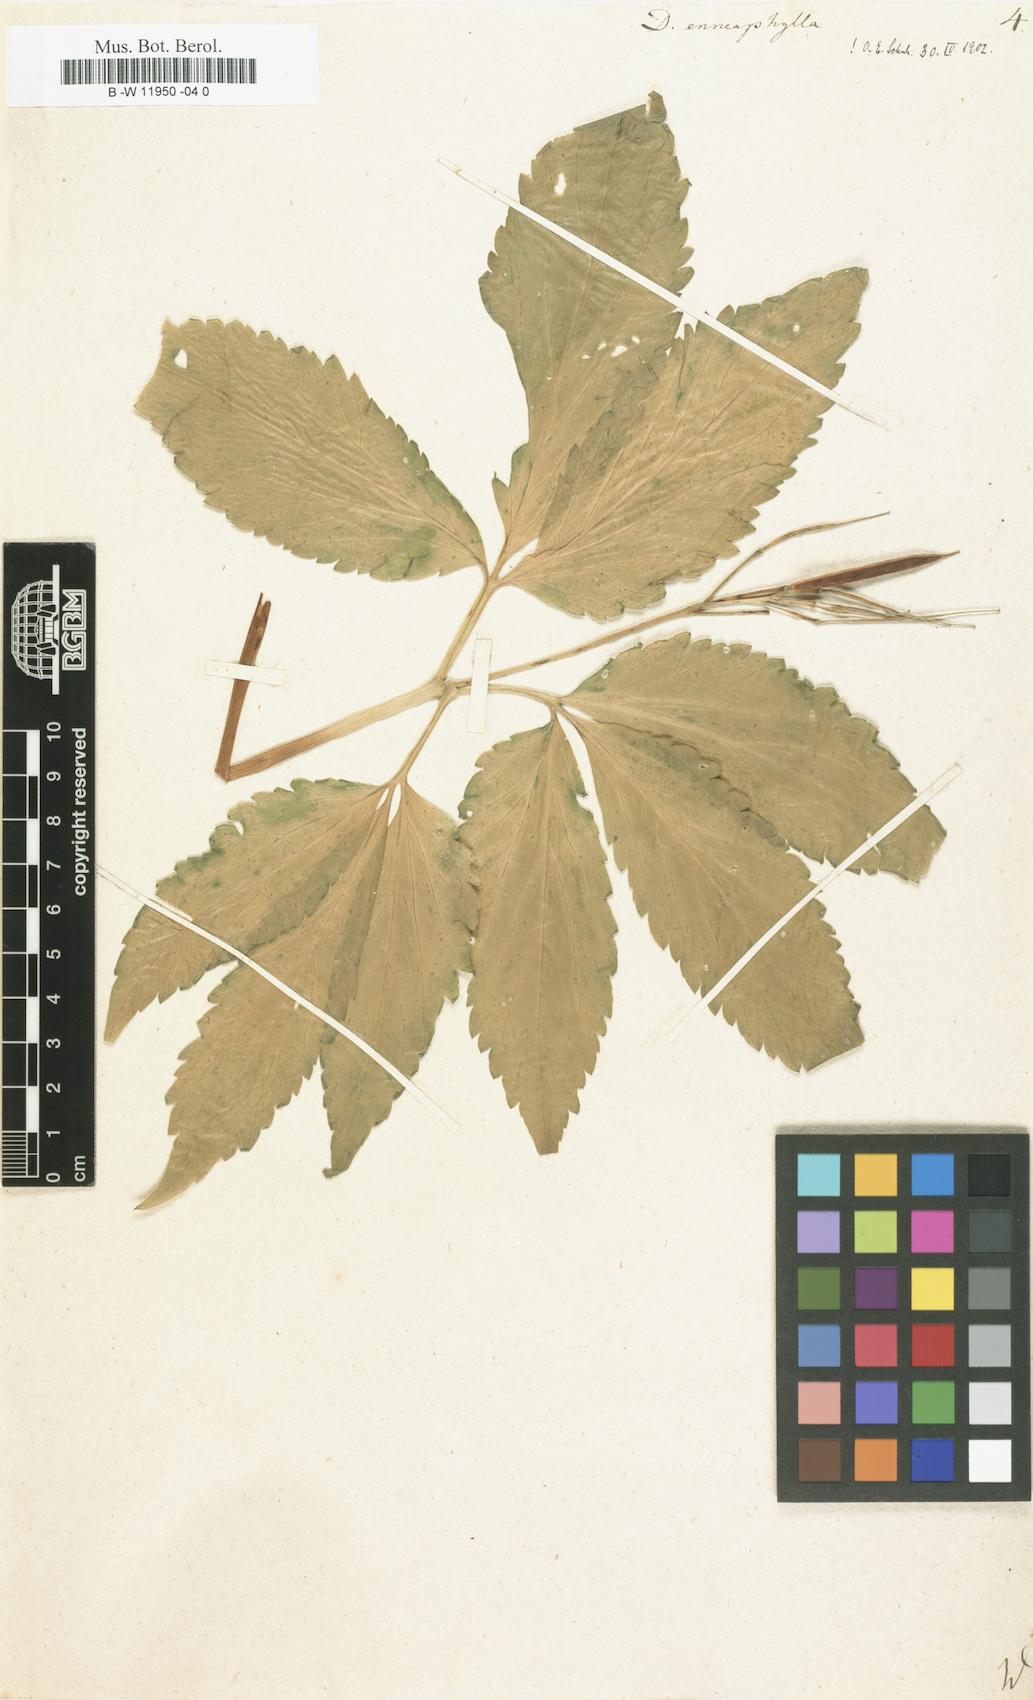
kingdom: Plantae
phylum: Tracheophyta
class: Magnoliopsida
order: Brassicales
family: Brassicaceae
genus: Cardamine
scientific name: Cardamine enneaphyllos
